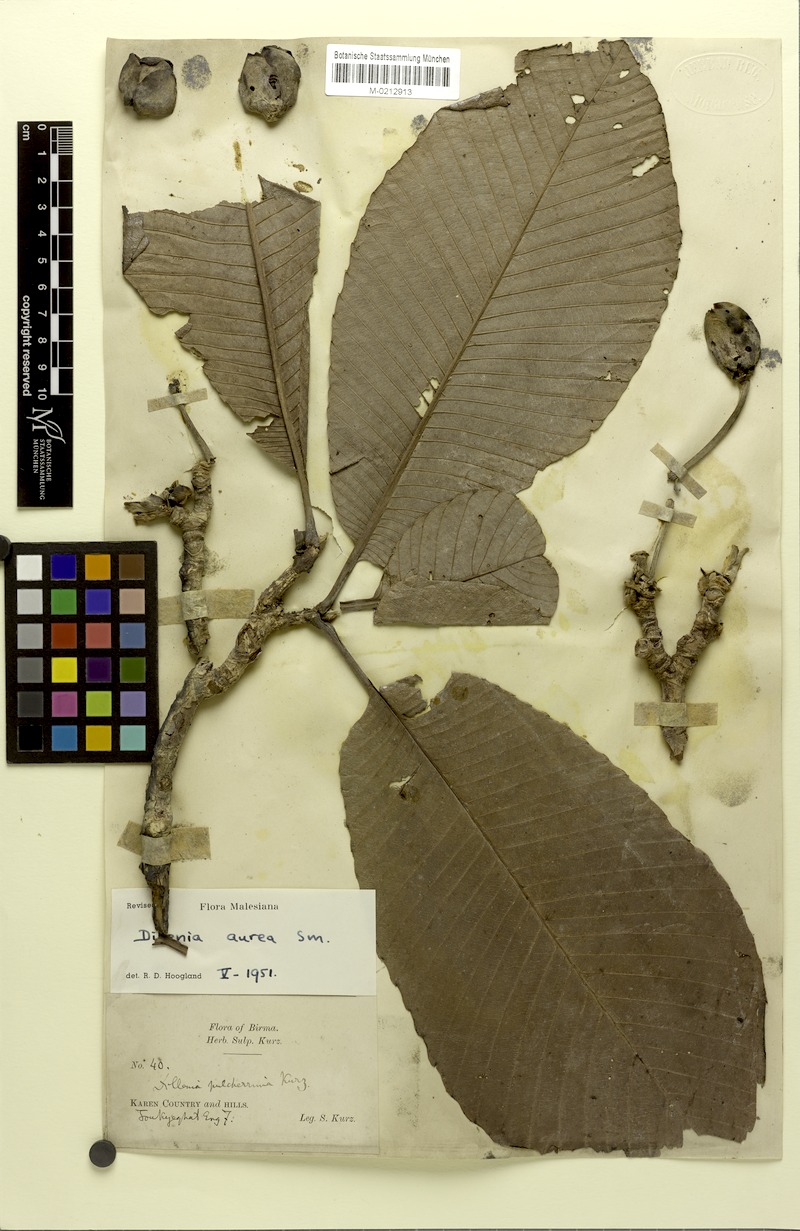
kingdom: Plantae
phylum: Tracheophyta
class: Magnoliopsida
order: Dilleniales
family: Dilleniaceae
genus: Dillenia
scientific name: Dillenia aurea
